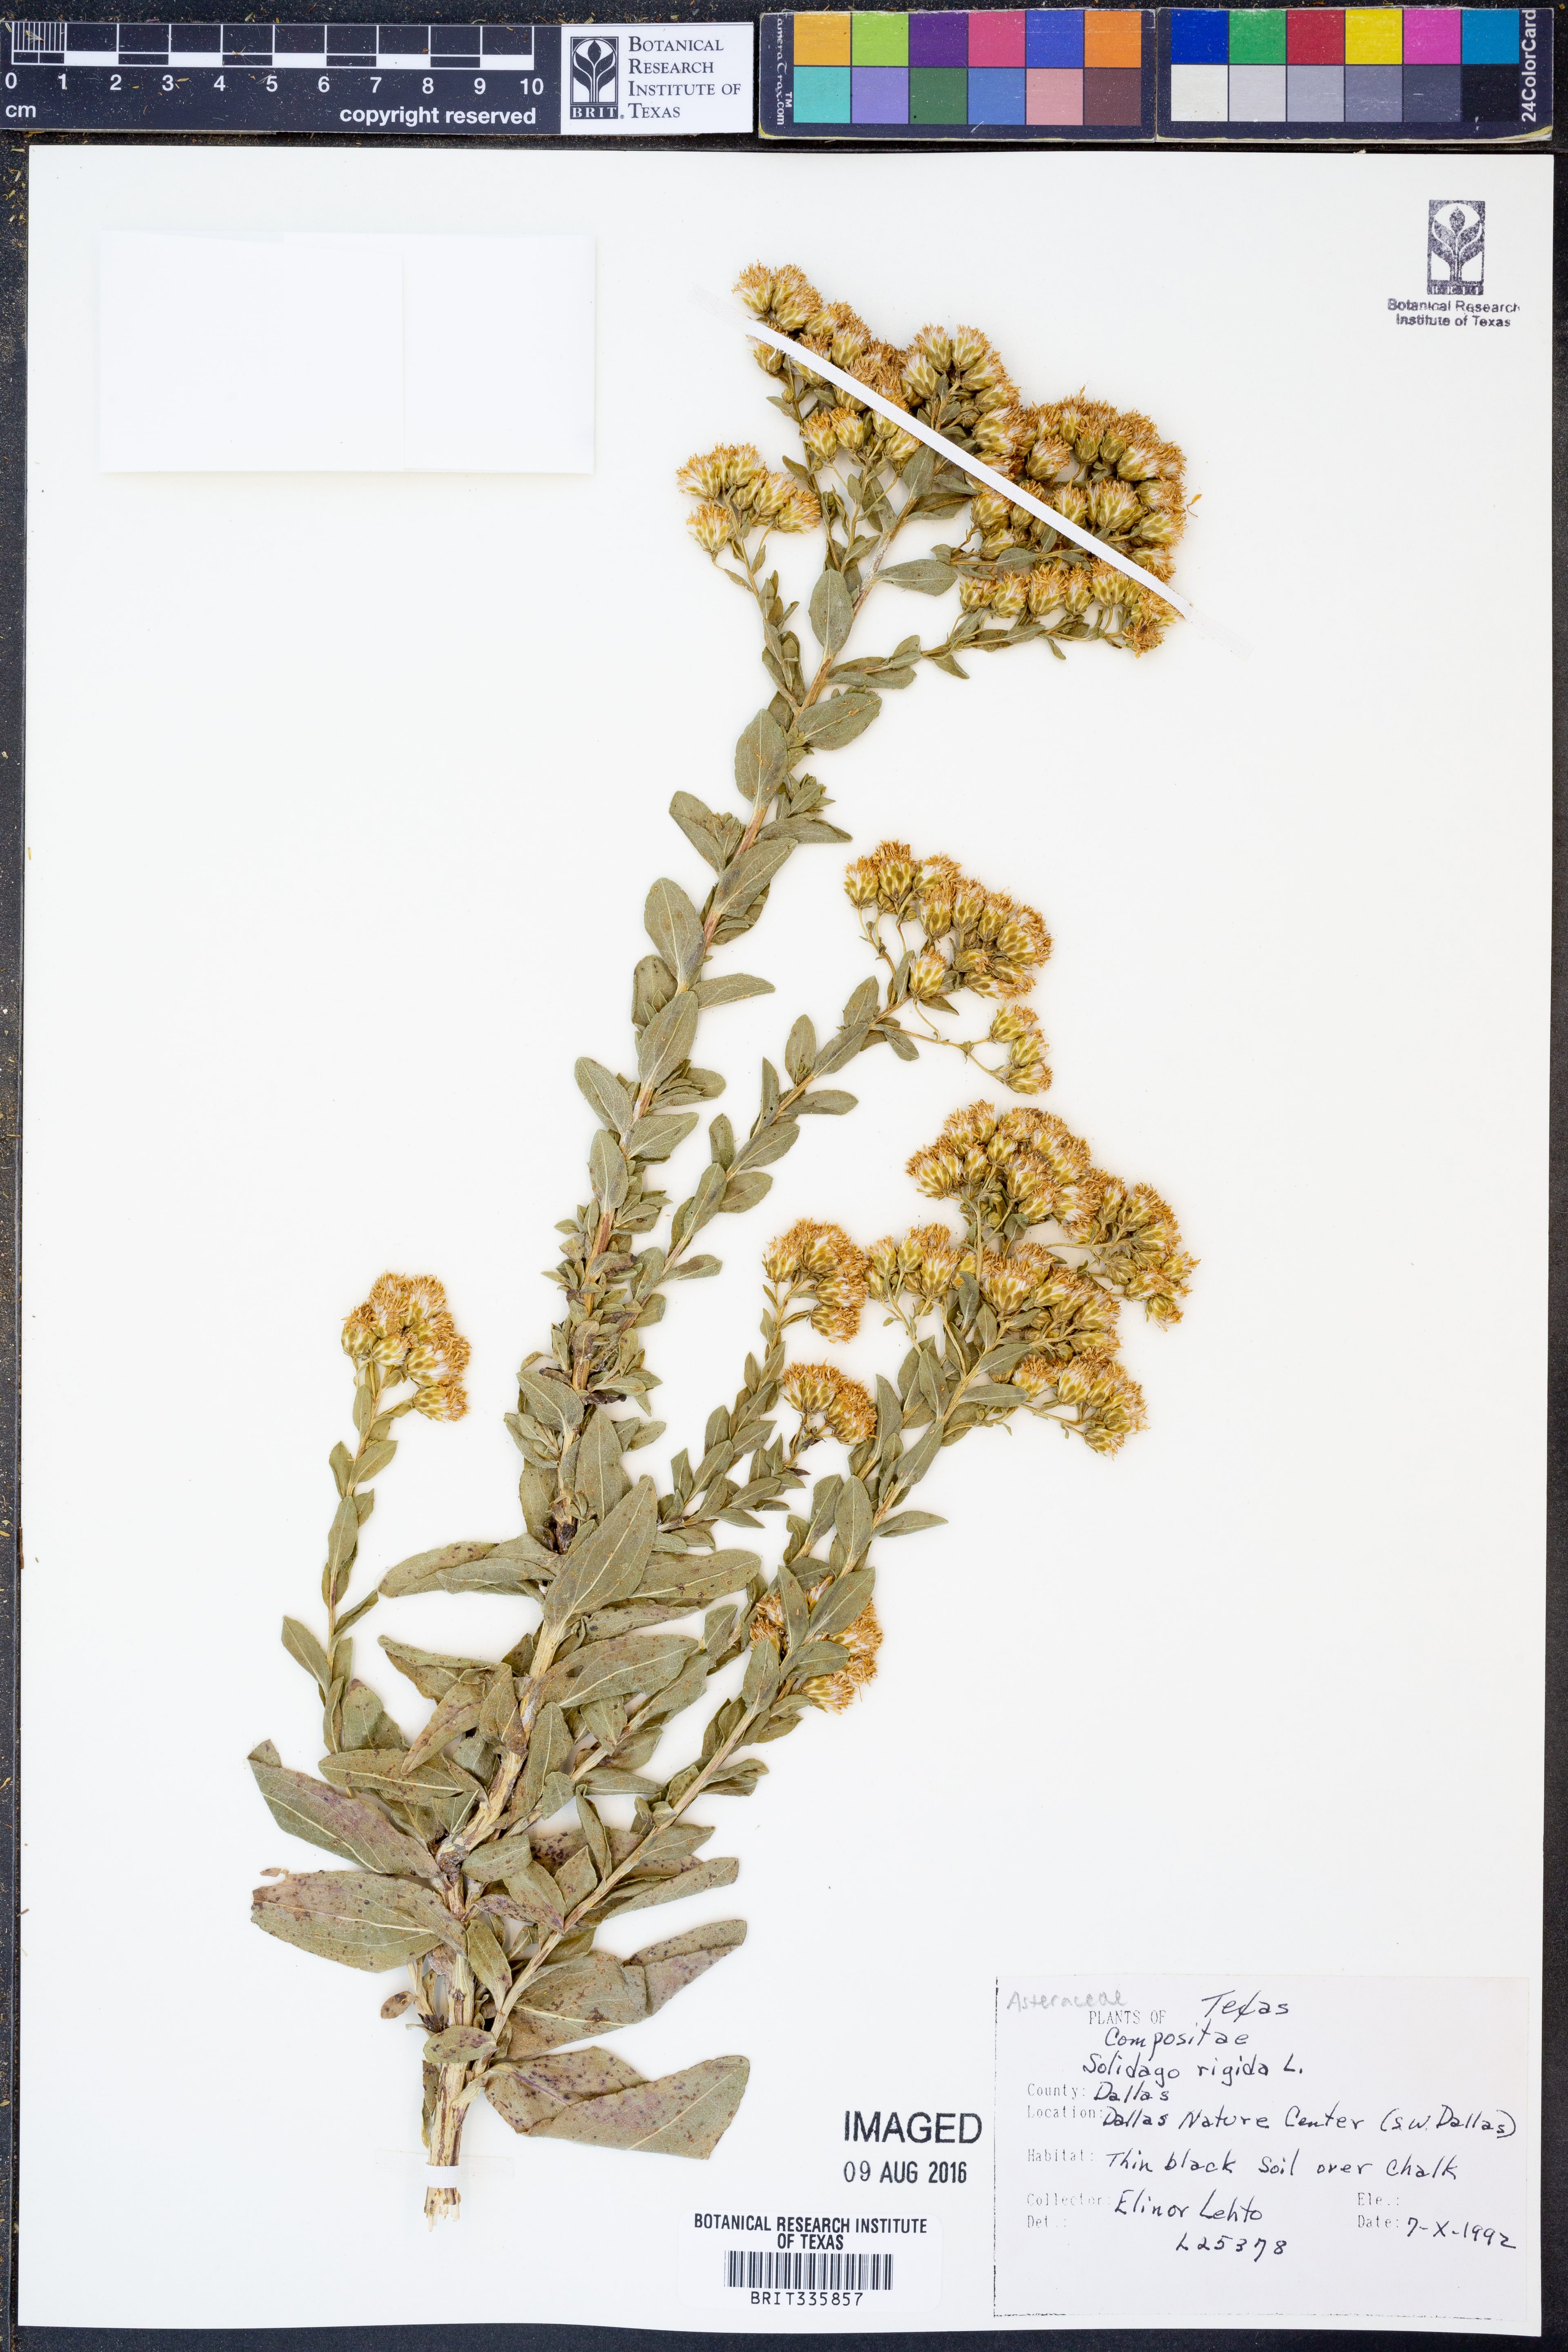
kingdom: Plantae
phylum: Tracheophyta
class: Magnoliopsida
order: Asterales
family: Asteraceae
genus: Solidago
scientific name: Solidago rigida
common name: Rigid goldenrod
